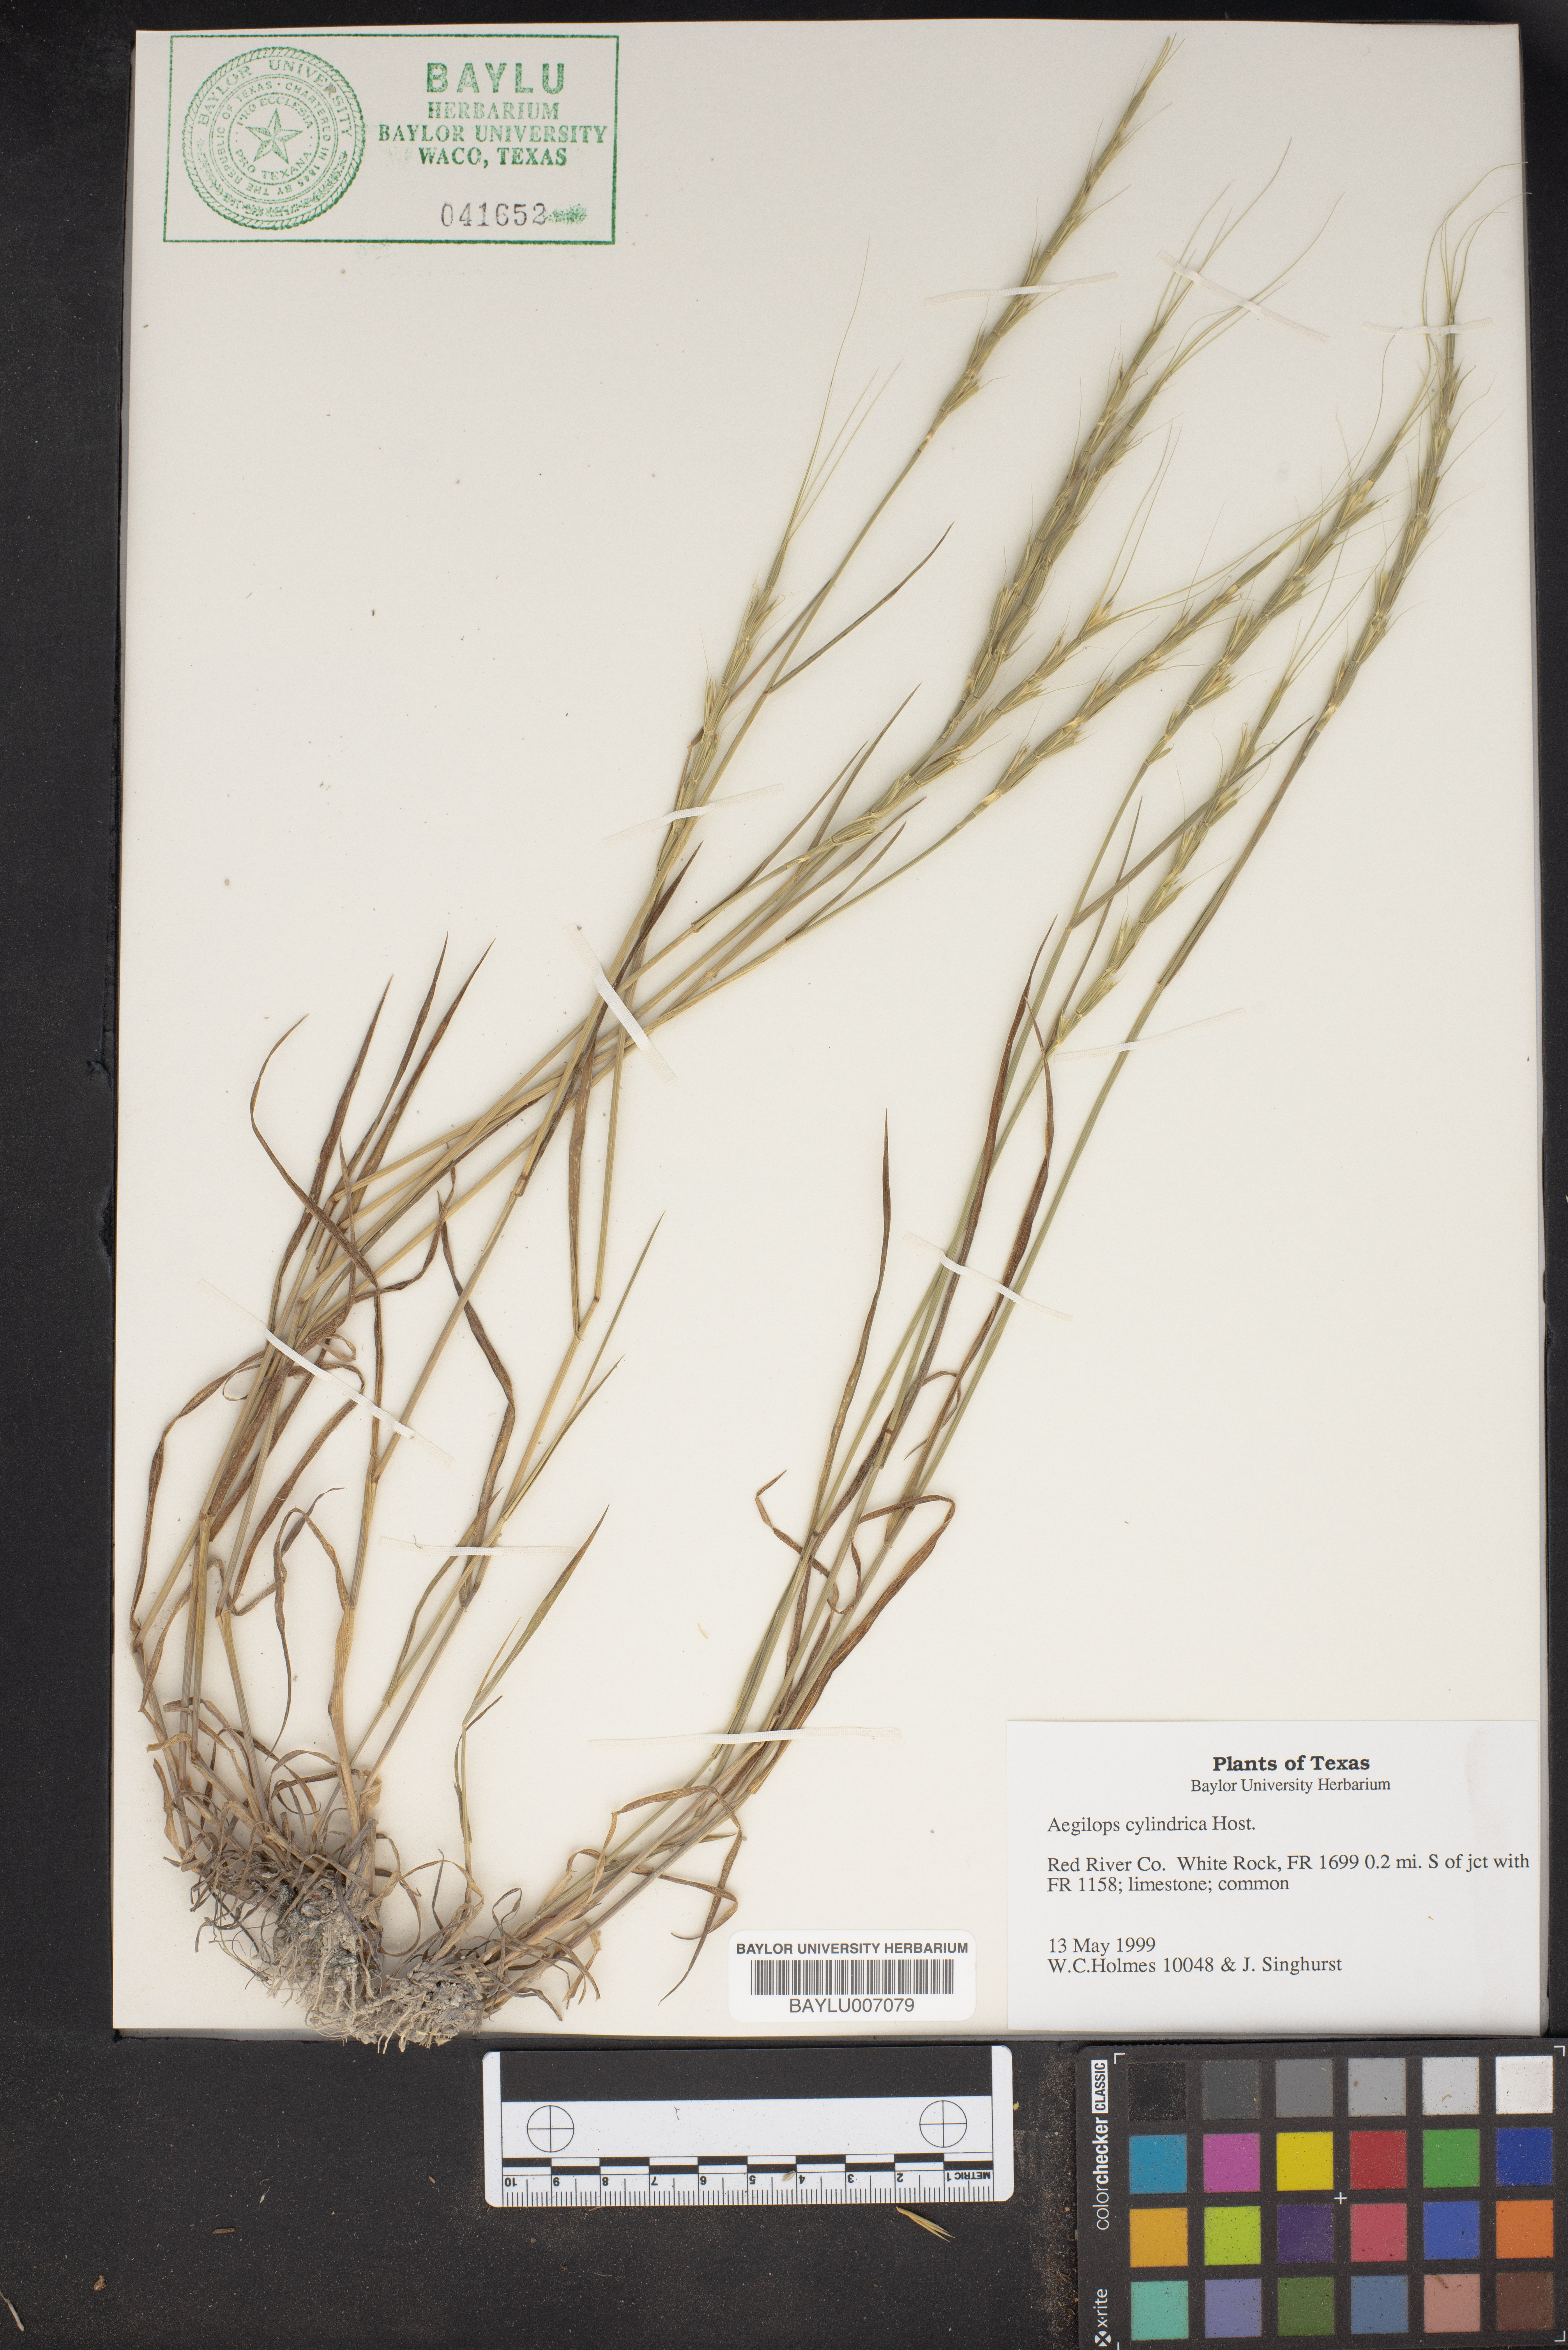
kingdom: Plantae
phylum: Tracheophyta
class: Liliopsida
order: Poales
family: Poaceae
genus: Aegilops
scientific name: Aegilops cylindrica
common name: Jointed goatgrass
